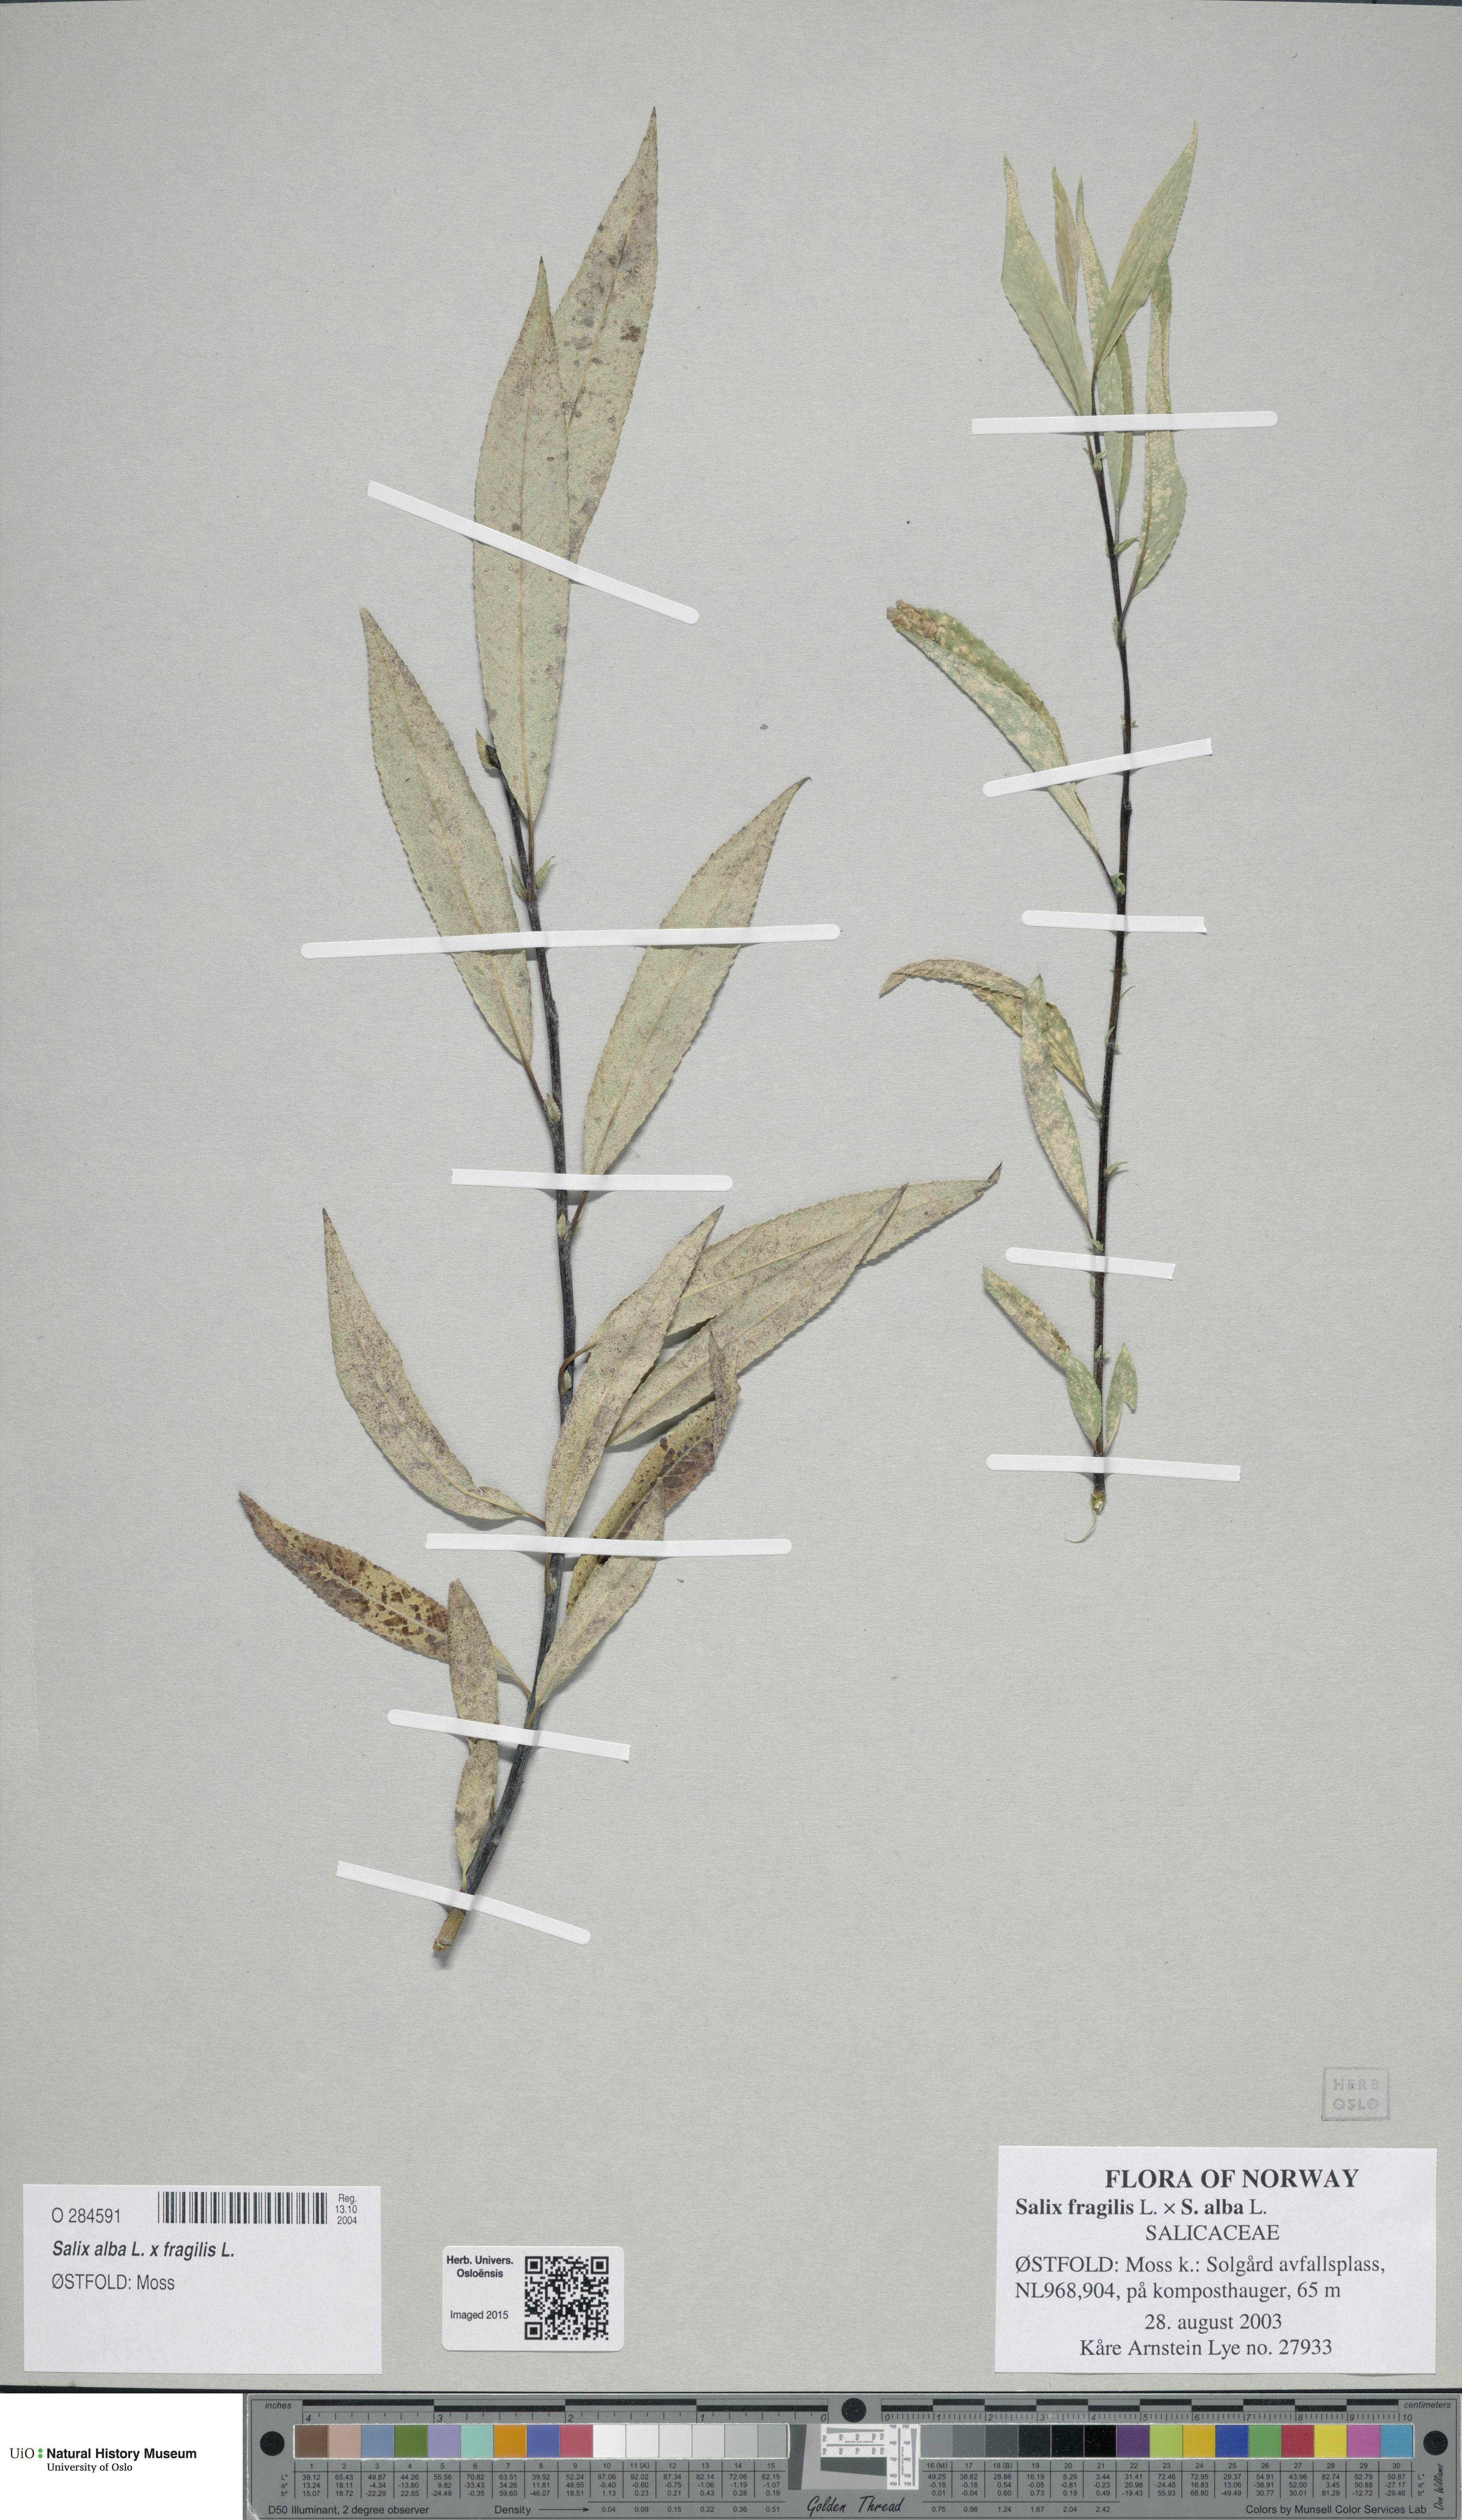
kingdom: Plantae
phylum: Tracheophyta
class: Magnoliopsida
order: Malpighiales
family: Salicaceae
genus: Salix
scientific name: Salix daphnoides
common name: European violet-willow
